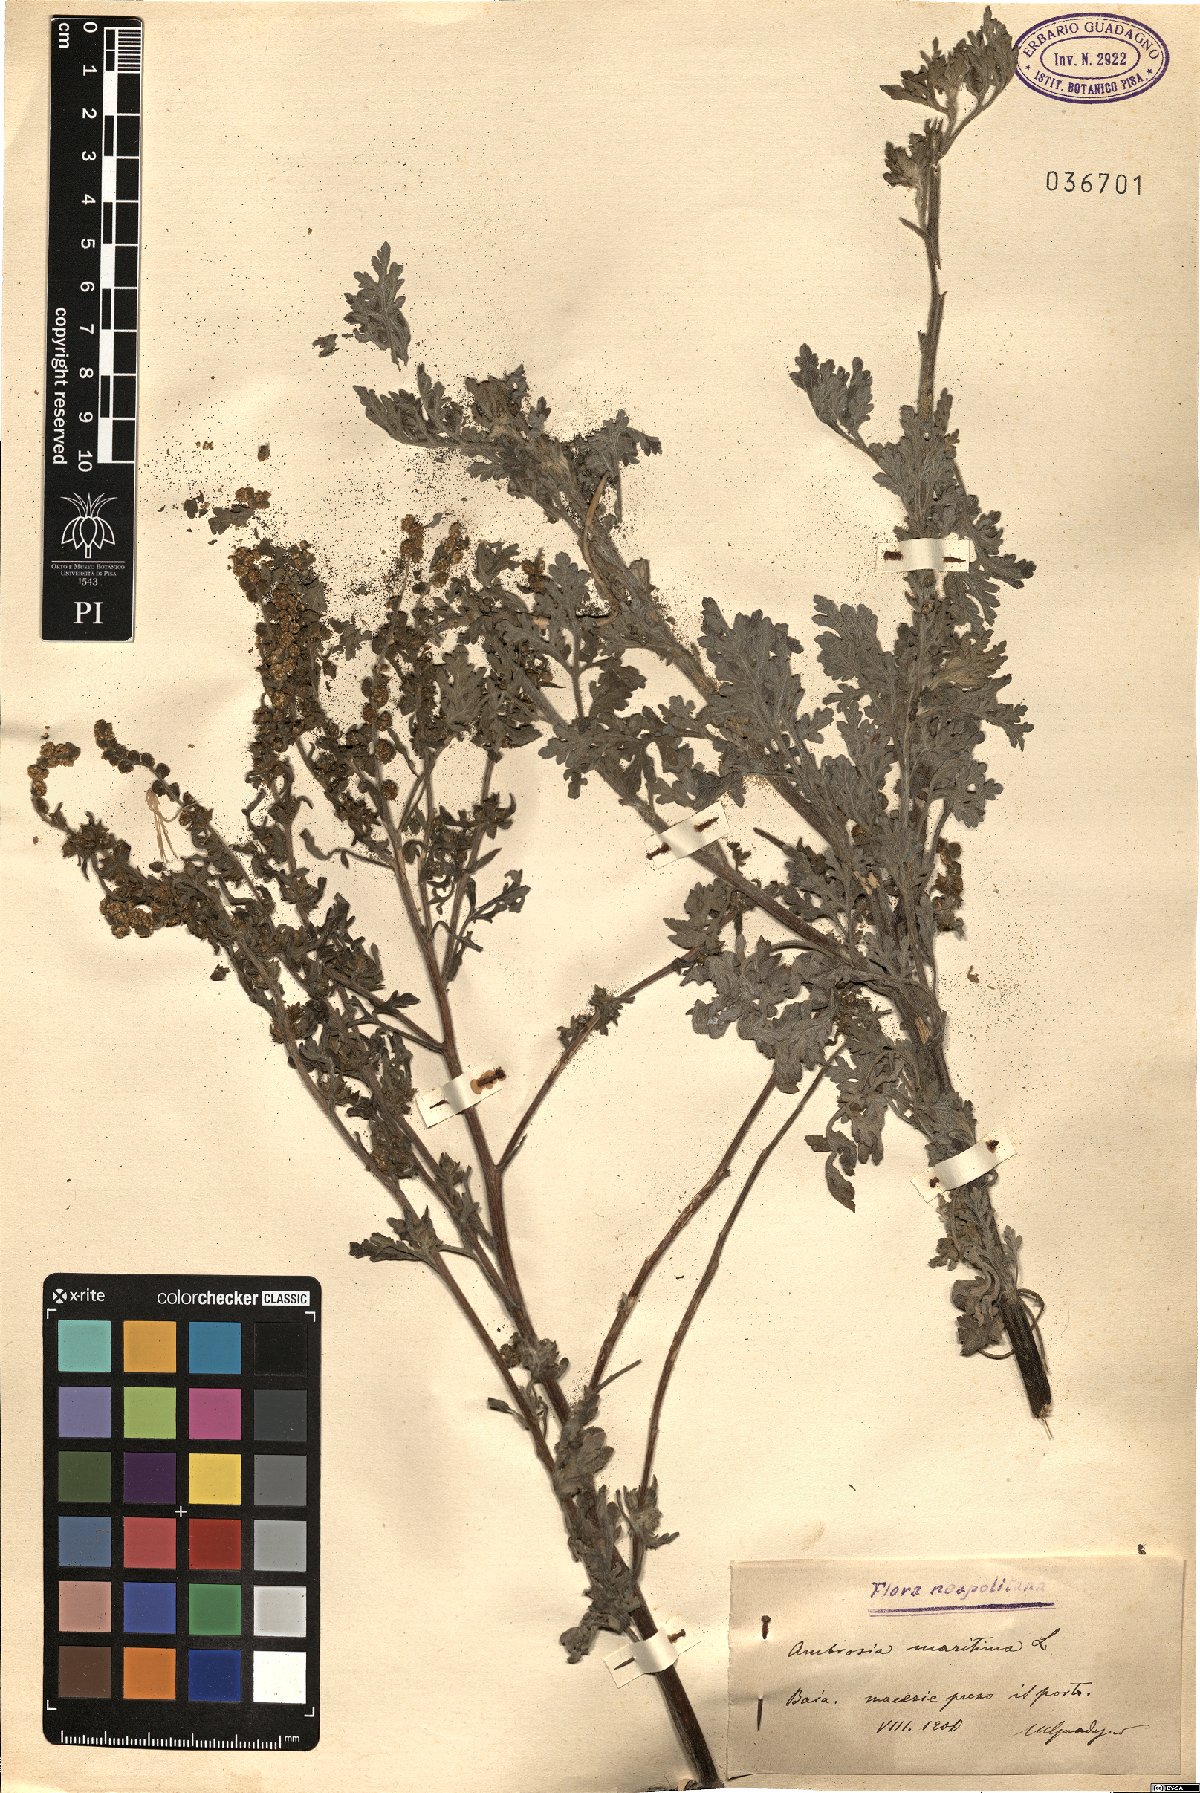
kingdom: Plantae
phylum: Tracheophyta
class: Magnoliopsida
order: Asterales
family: Asteraceae
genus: Ambrosia
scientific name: Ambrosia maritima
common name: Sea ambrosia
